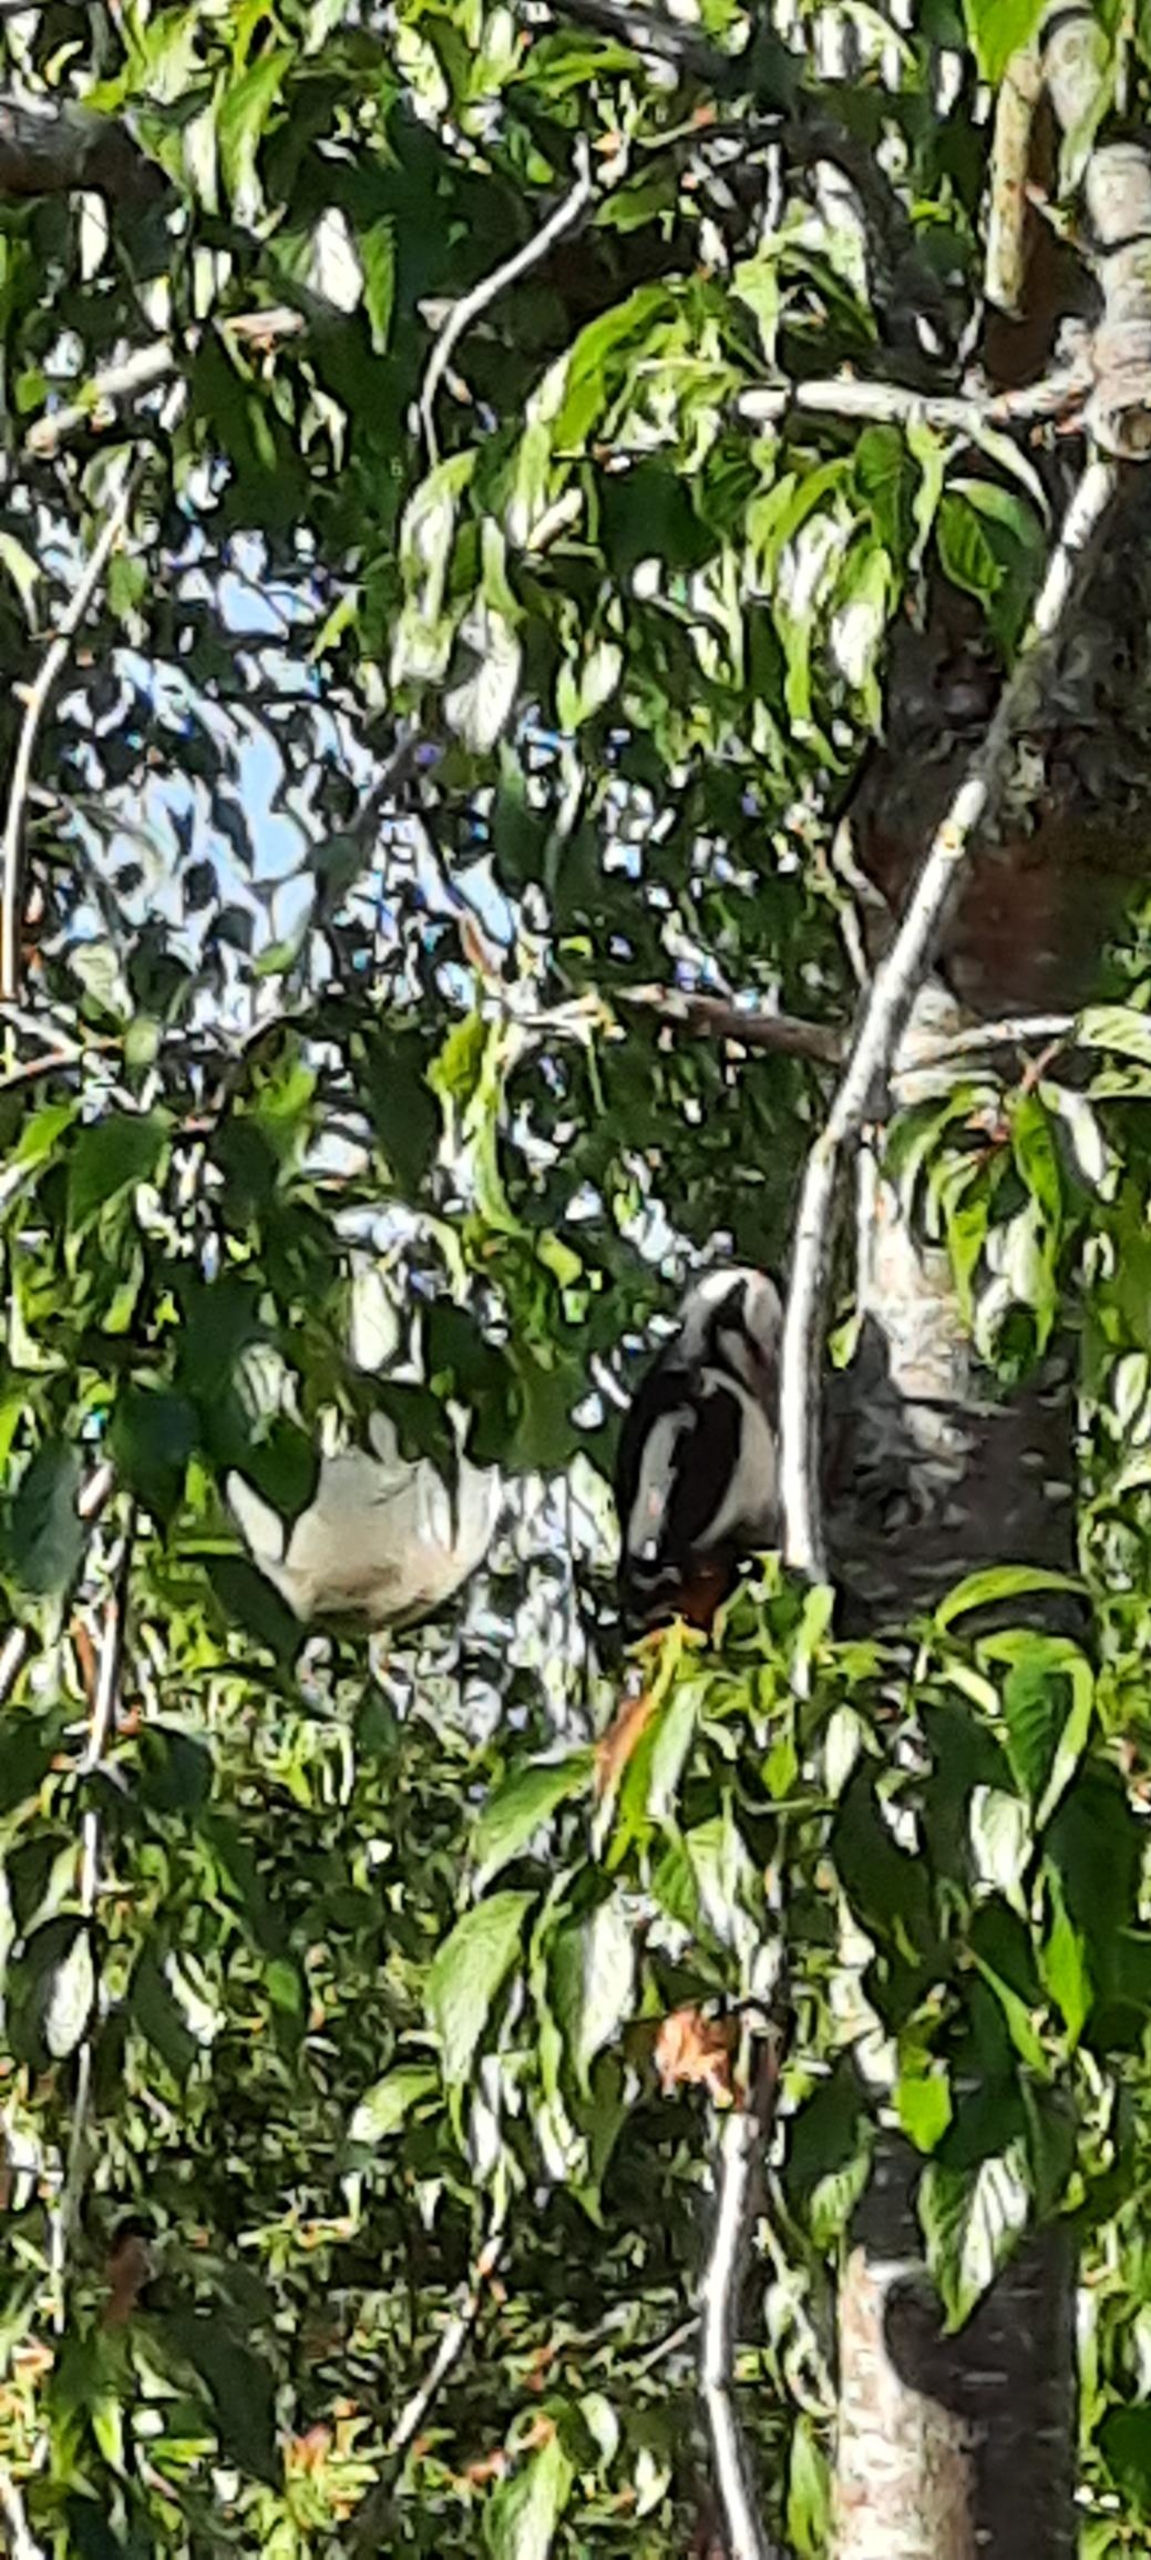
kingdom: Animalia
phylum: Chordata
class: Aves
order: Piciformes
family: Picidae
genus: Dendrocopos
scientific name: Dendrocopos major
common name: Stor flagspætte
